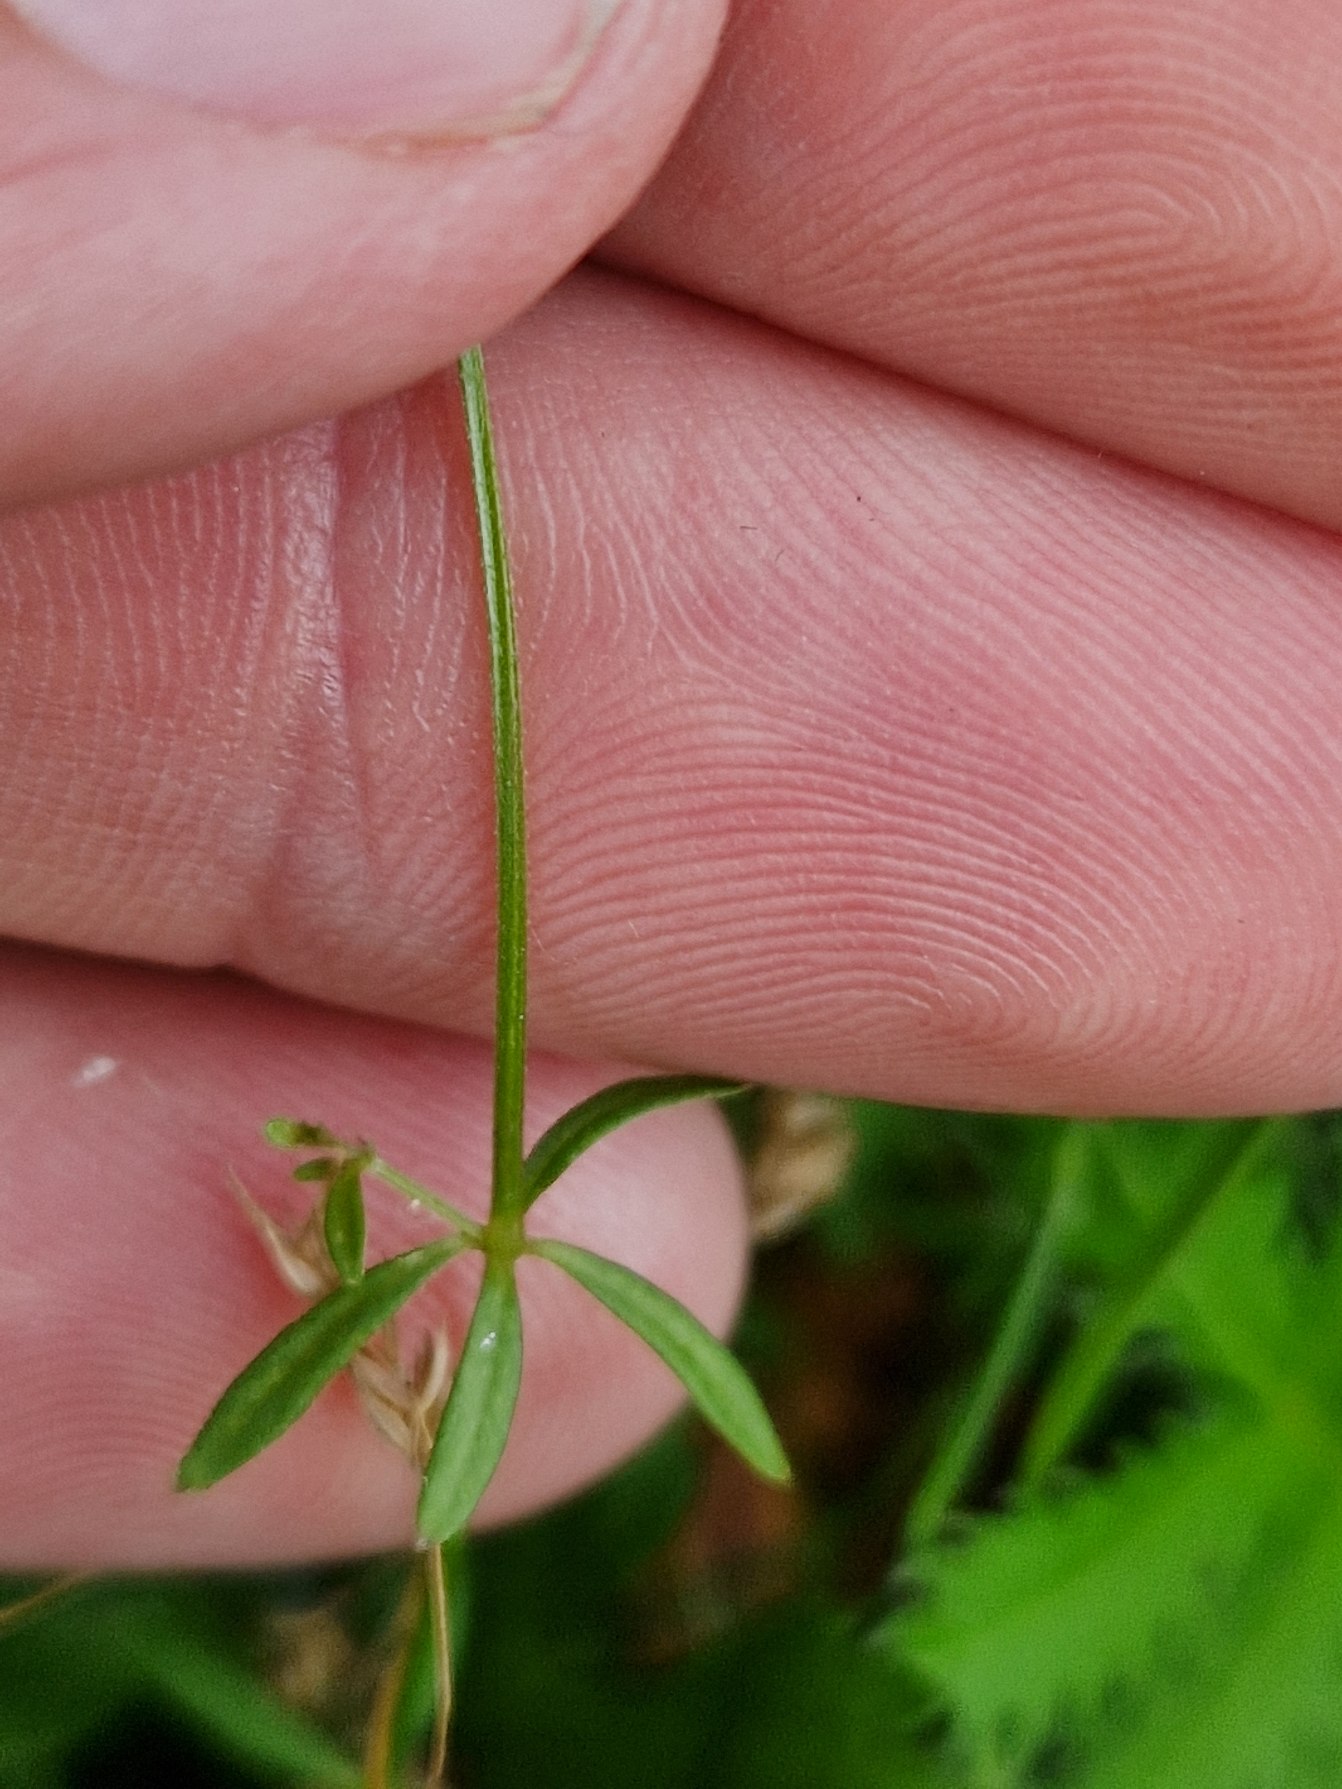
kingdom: Plantae
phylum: Tracheophyta
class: Magnoliopsida
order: Gentianales
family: Rubiaceae
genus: Galium
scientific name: Galium palustre
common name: Kær-snerre
